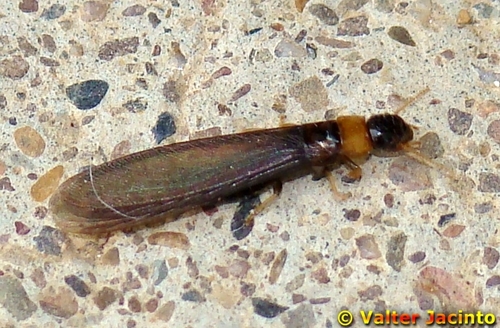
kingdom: Animalia
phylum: Arthropoda
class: Insecta
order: Blattodea
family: Kalotermitidae
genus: Kalotermes
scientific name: Kalotermes flavicollis
